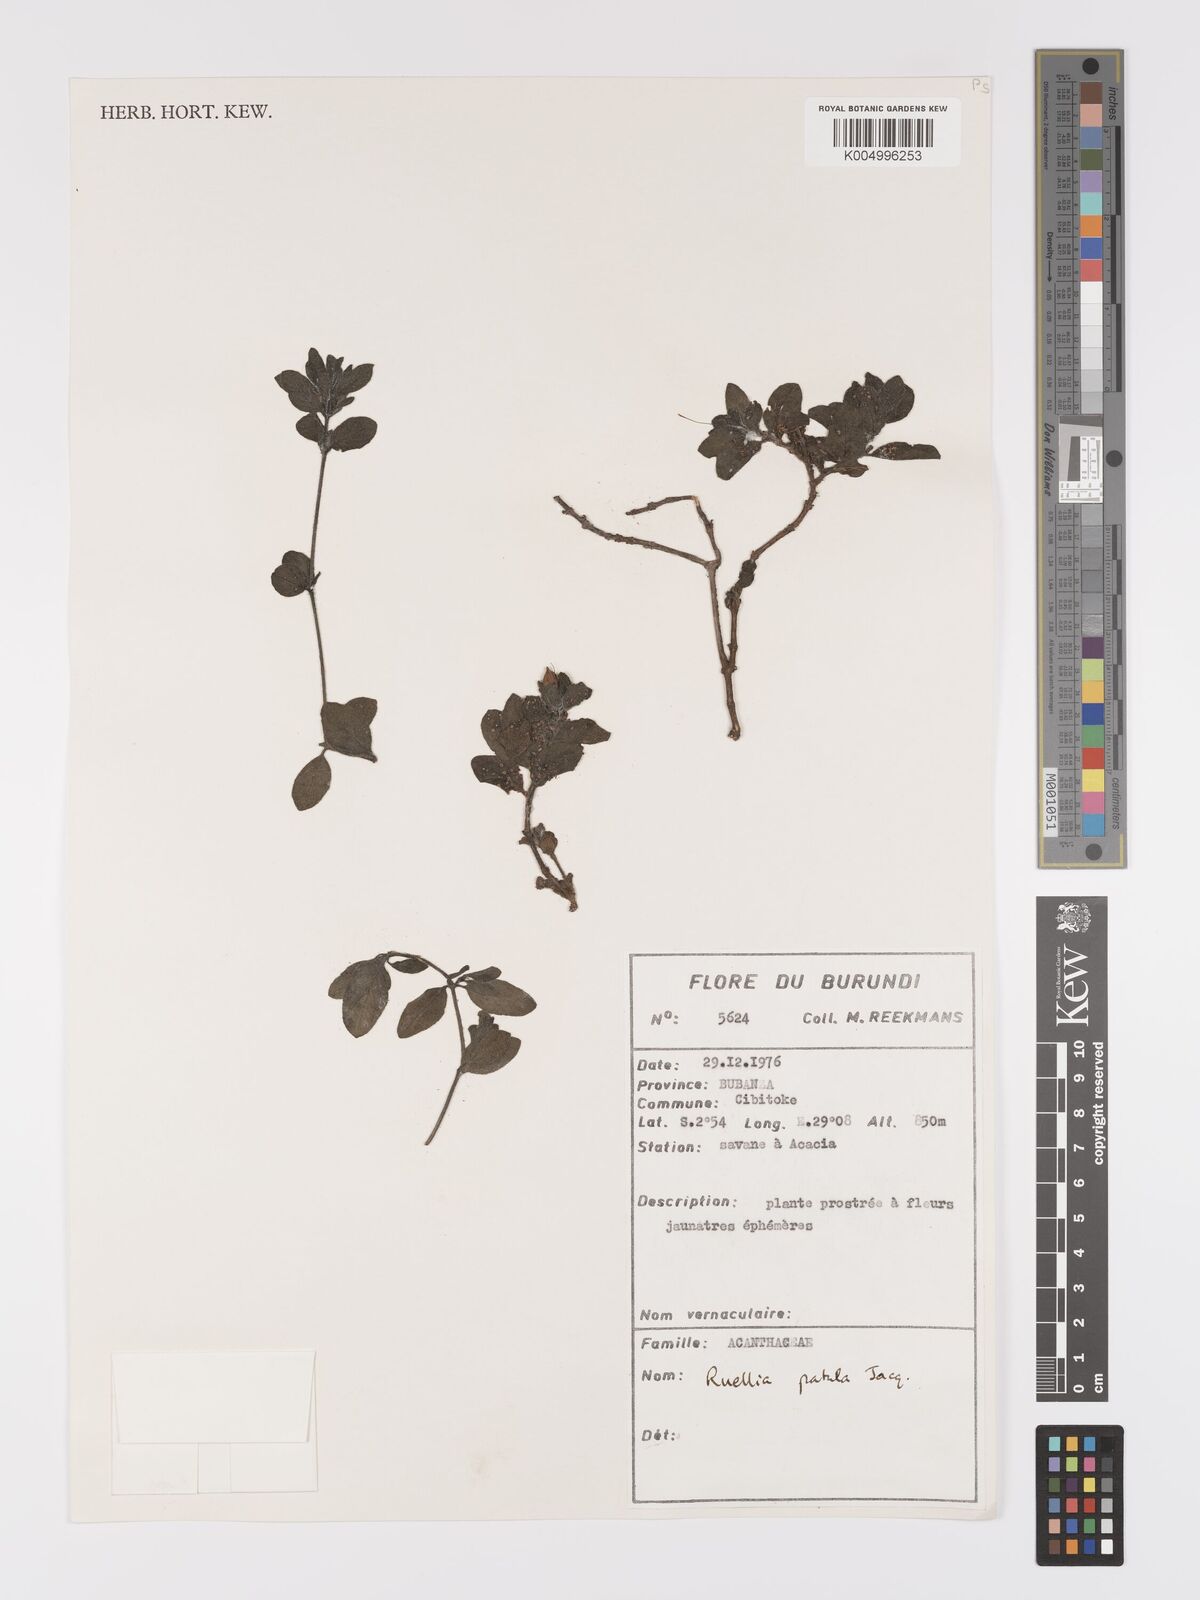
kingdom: Plantae
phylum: Tracheophyta
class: Magnoliopsida
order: Lamiales
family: Acanthaceae
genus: Ruellia
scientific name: Ruellia patula
